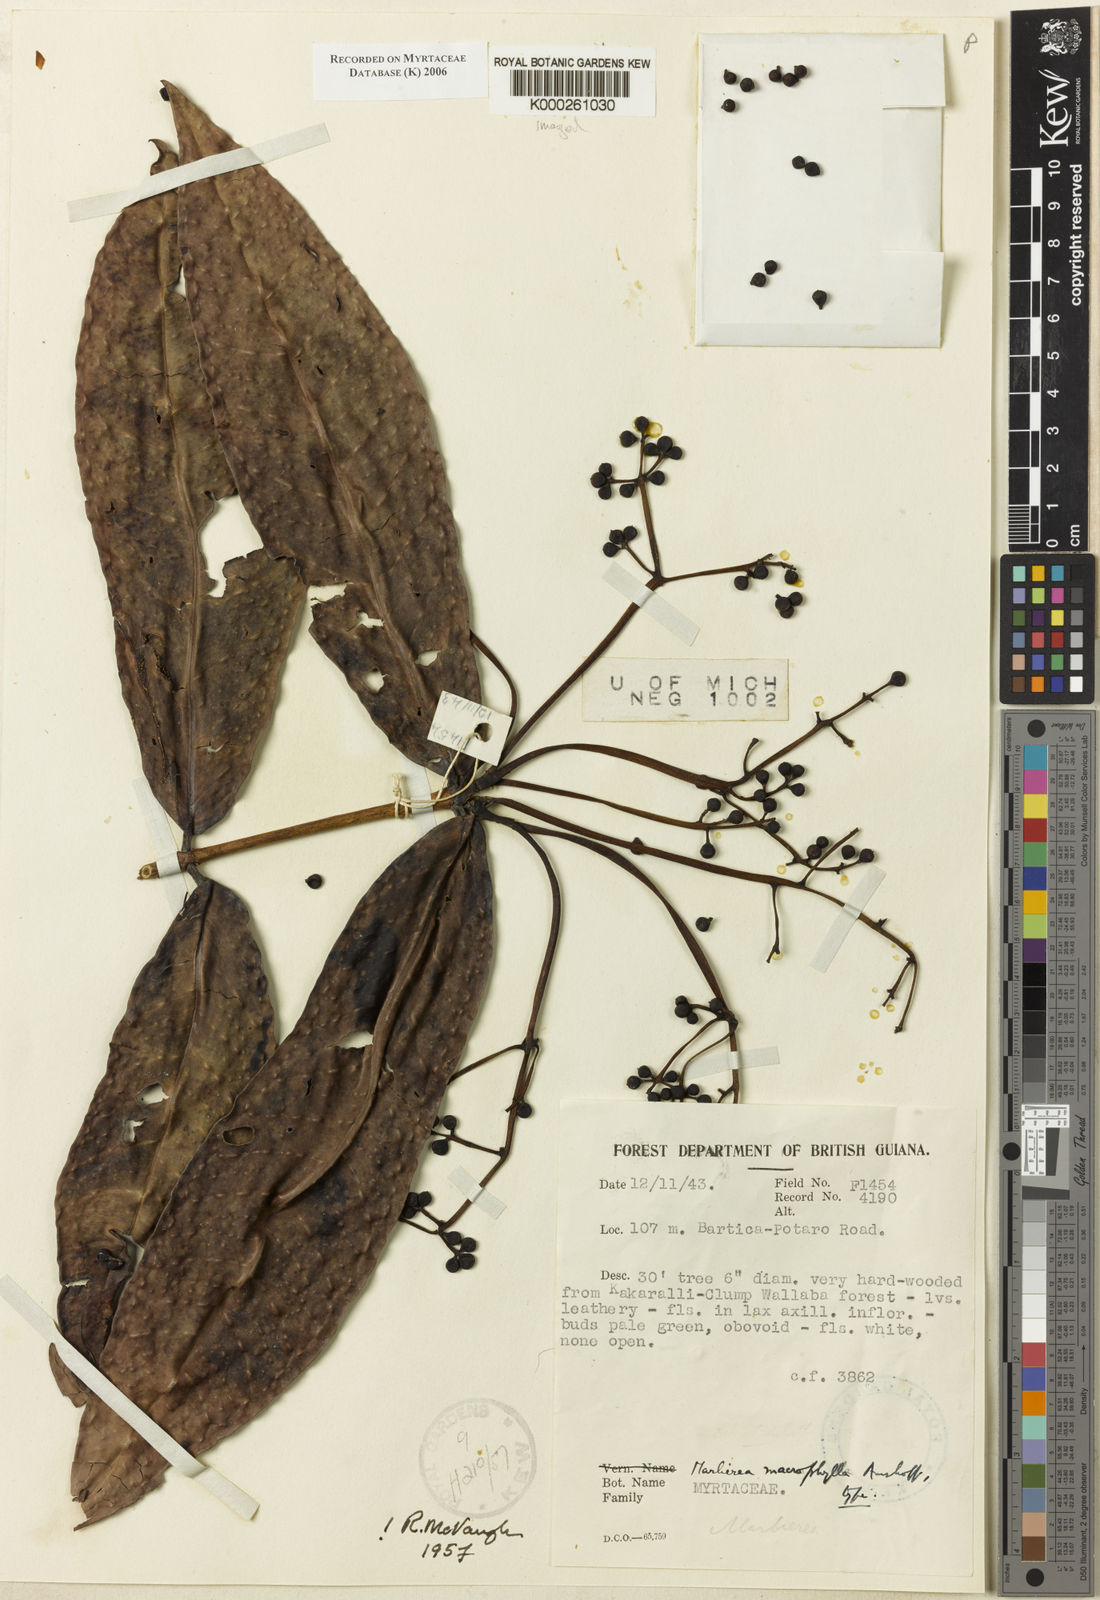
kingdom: Plantae
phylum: Tracheophyta
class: Magnoliopsida
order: Myrtales
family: Myrtaceae
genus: Myrcia
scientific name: Myrcia neomacrophylla
